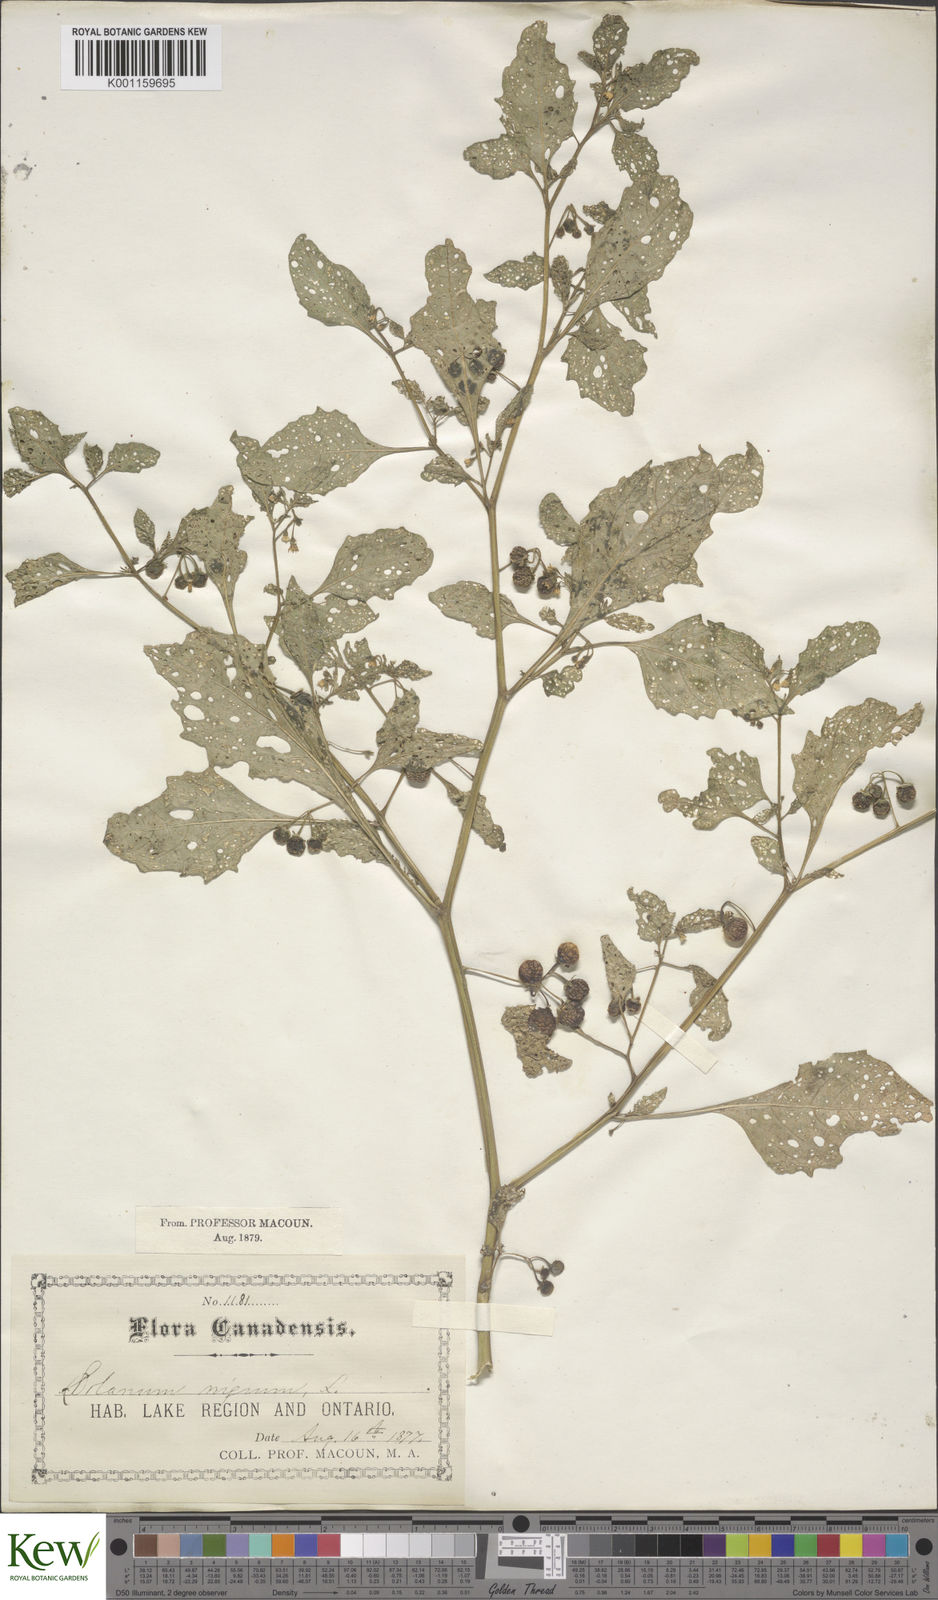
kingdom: Plantae
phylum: Tracheophyta
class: Magnoliopsida
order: Solanales
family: Solanaceae
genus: Solanum
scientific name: Solanum emulans
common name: Eastern black nightshade
